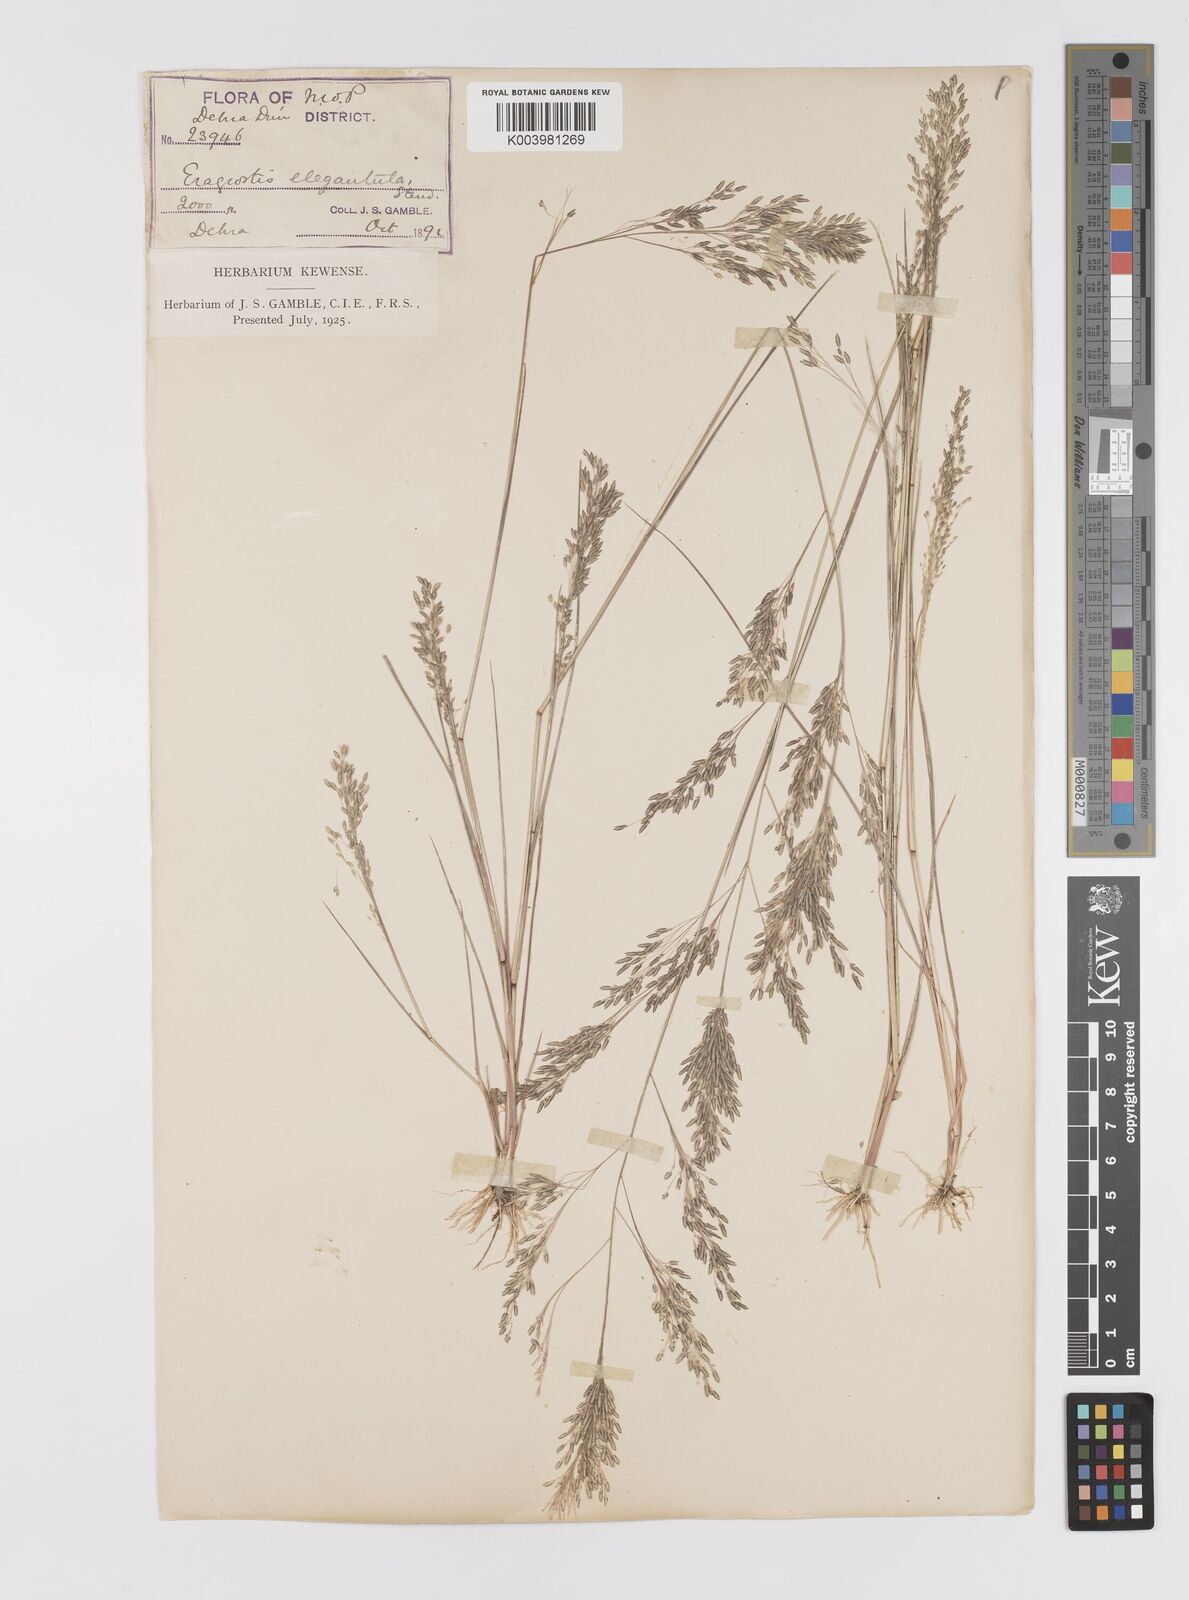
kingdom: Plantae
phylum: Tracheophyta
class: Liliopsida
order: Poales
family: Poaceae
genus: Eragrostis
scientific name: Eragrostis gangetica
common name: Slimflower lovegrass
